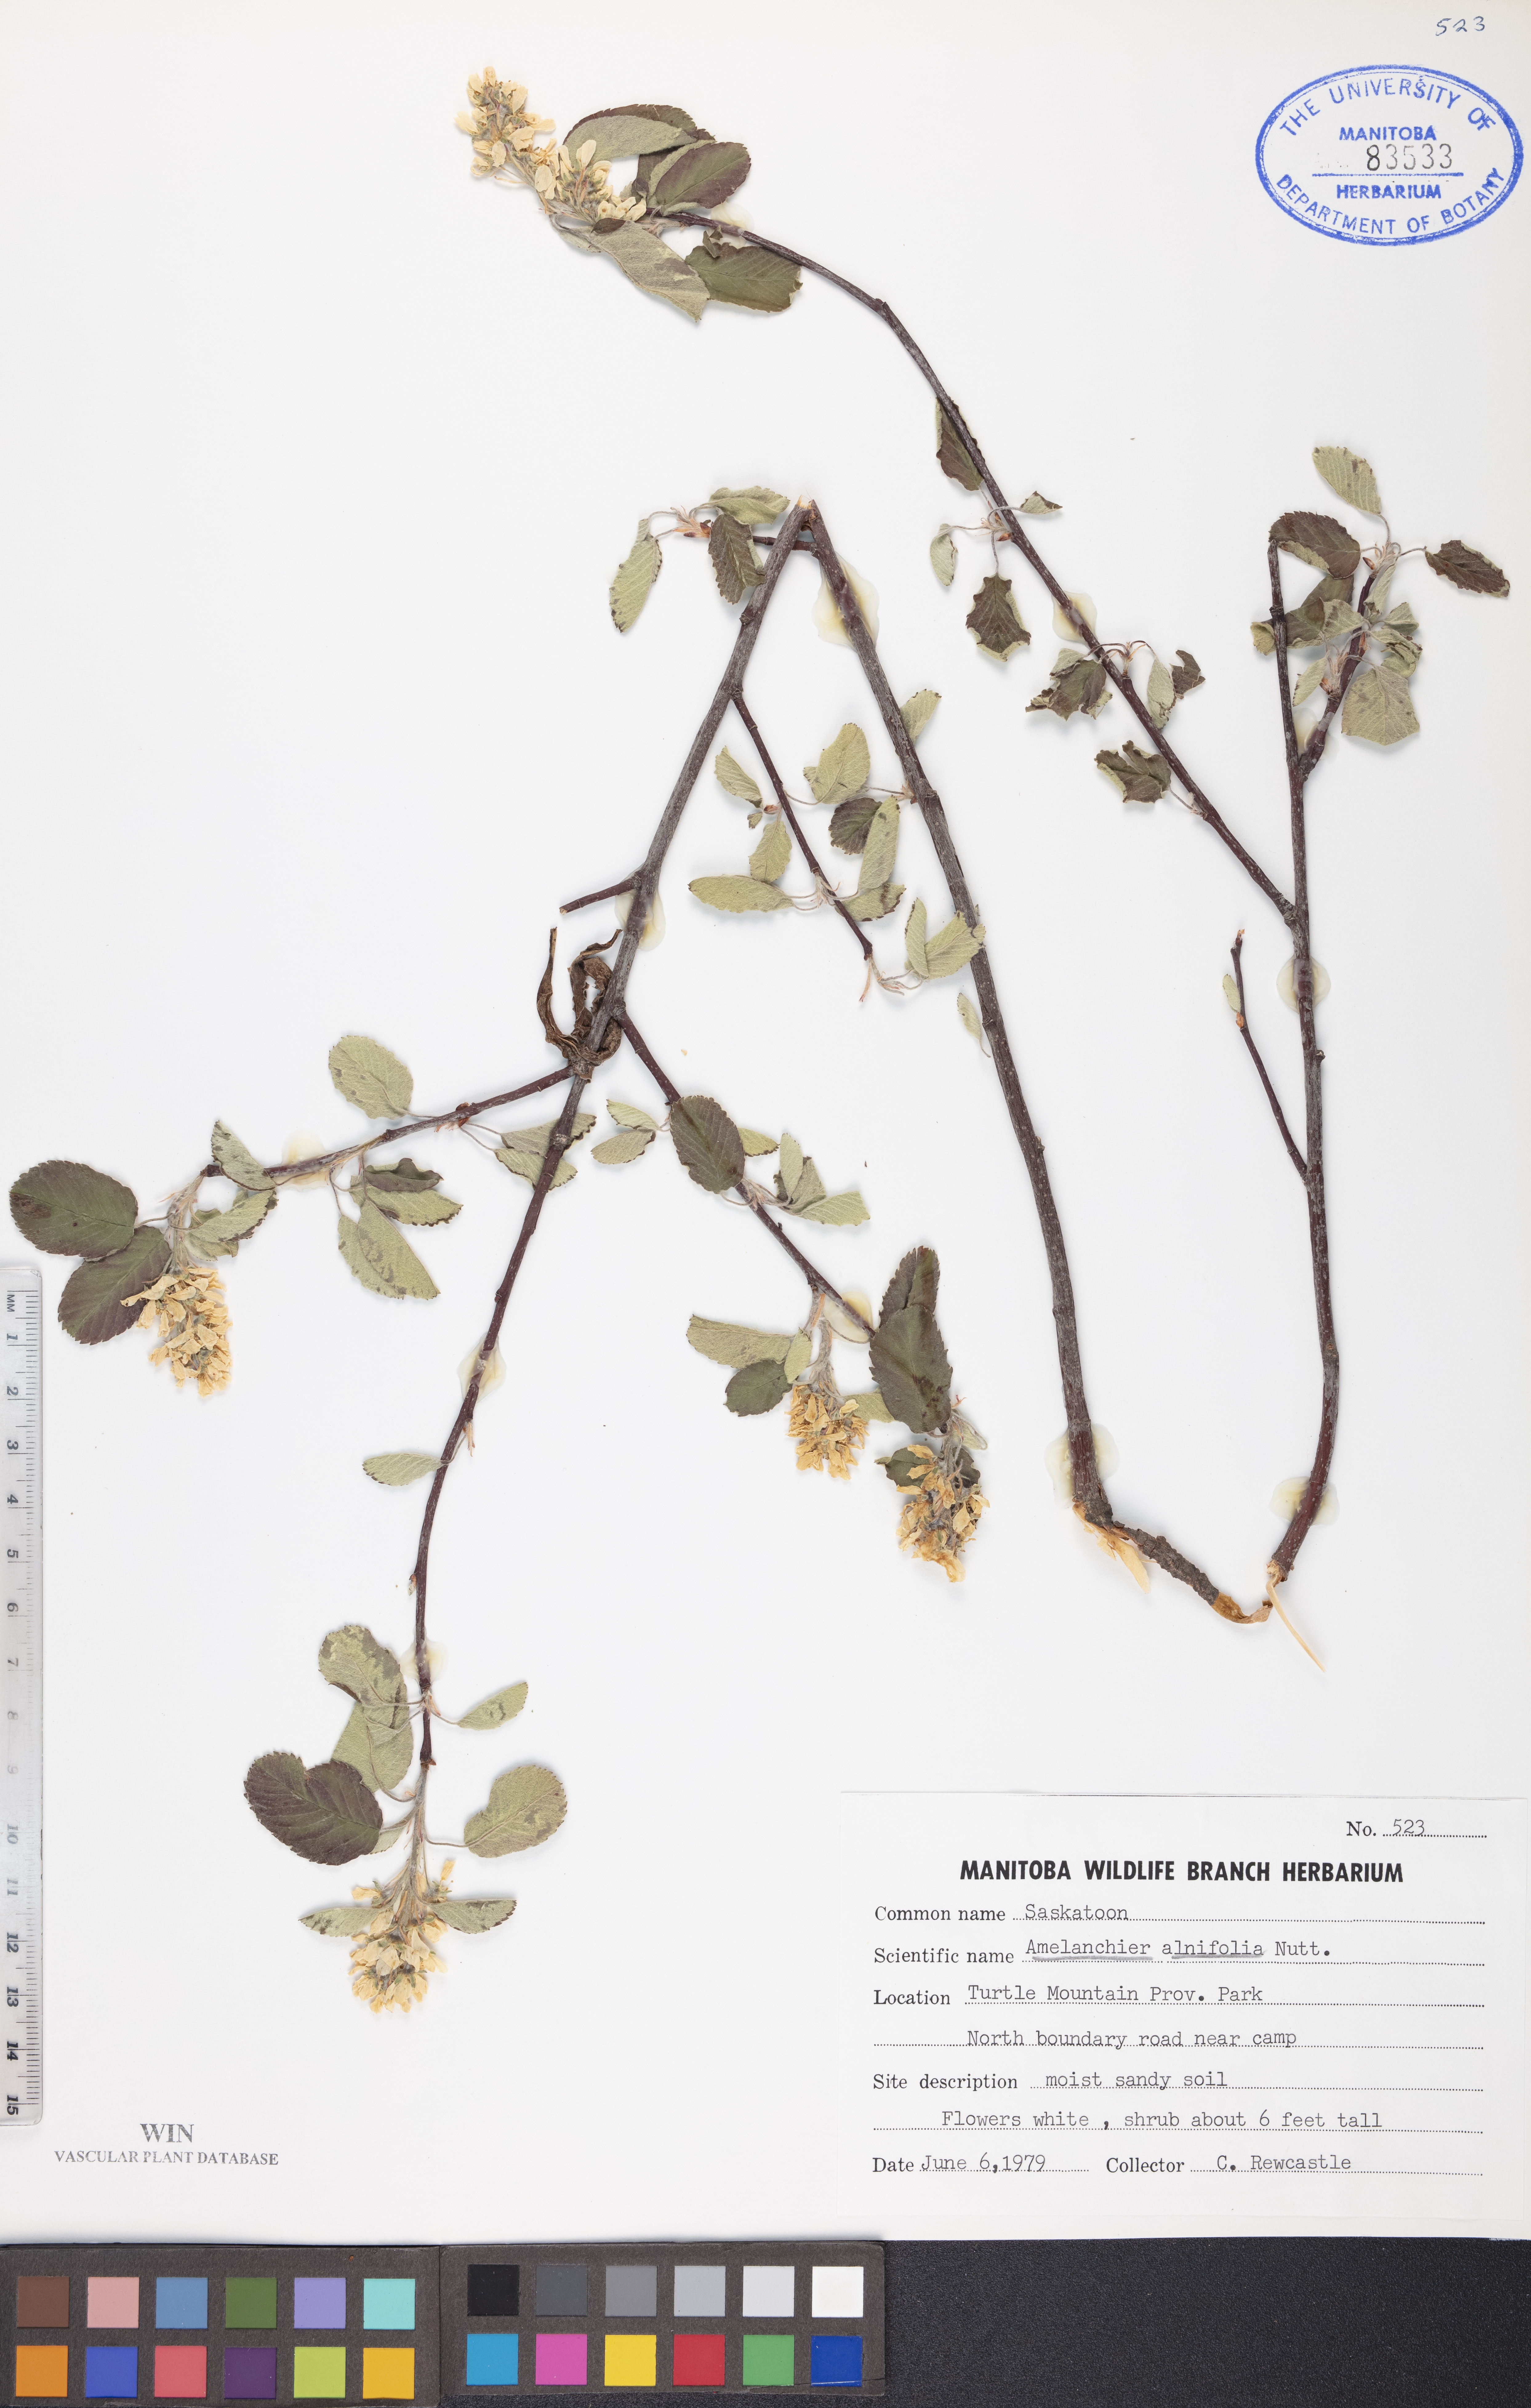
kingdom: Plantae
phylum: Tracheophyta
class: Magnoliopsida
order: Rosales
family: Rosaceae
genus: Amelanchier
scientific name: Amelanchier alnifolia
